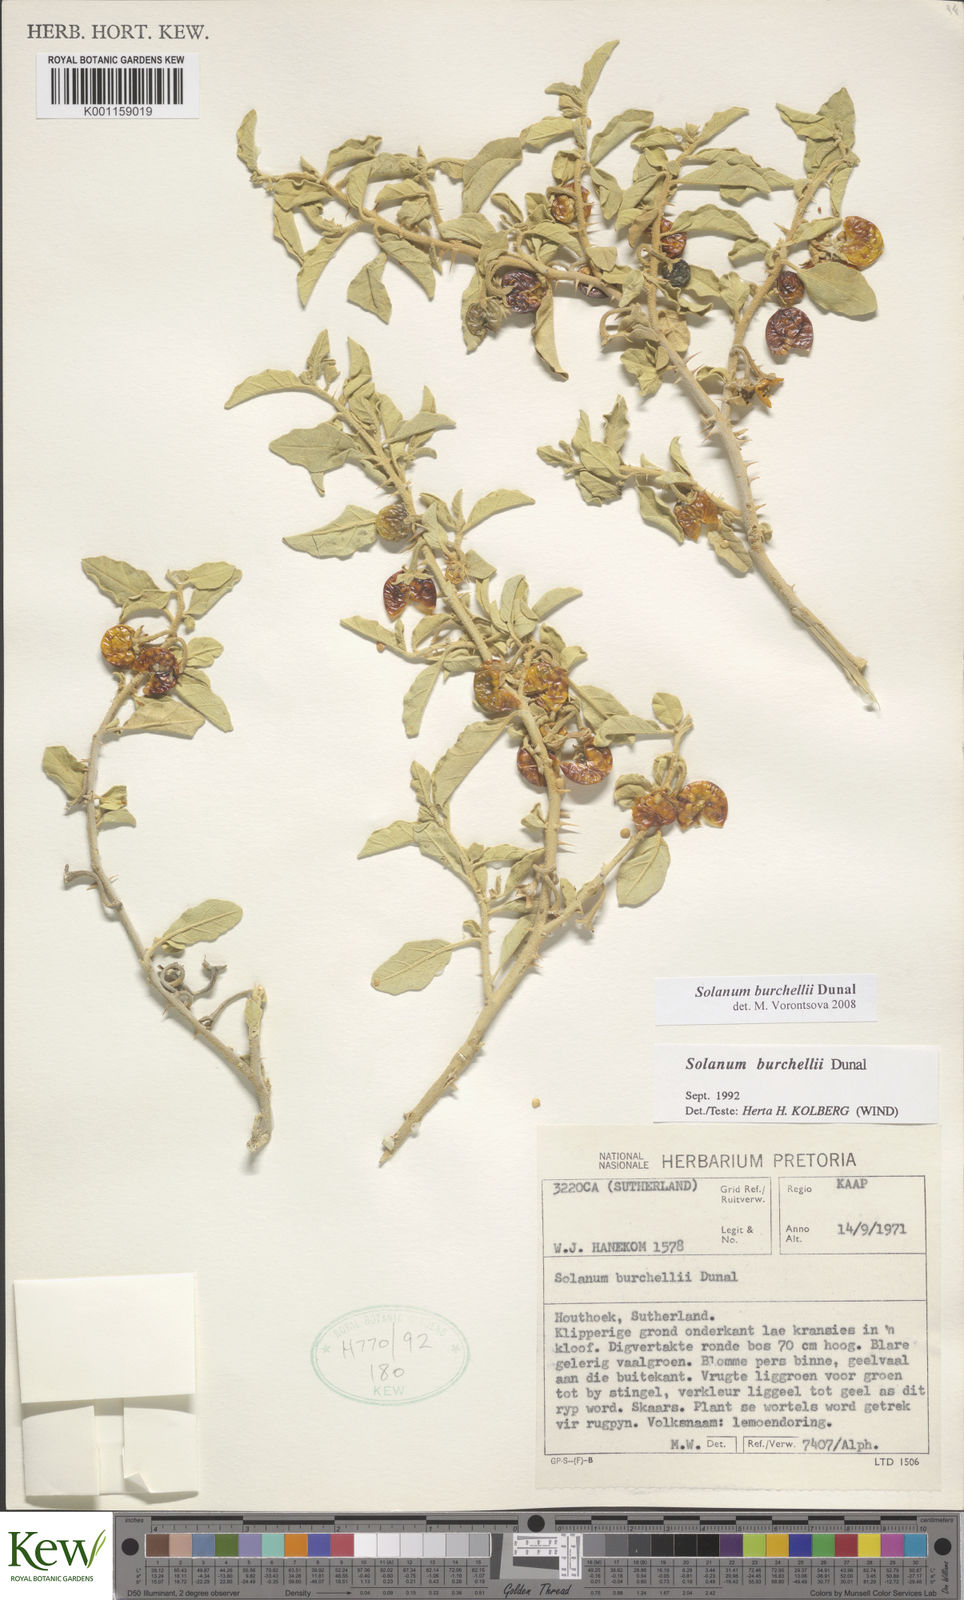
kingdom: Plantae
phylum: Tracheophyta
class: Magnoliopsida
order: Solanales
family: Solanaceae
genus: Solanum
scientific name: Solanum burchellii
